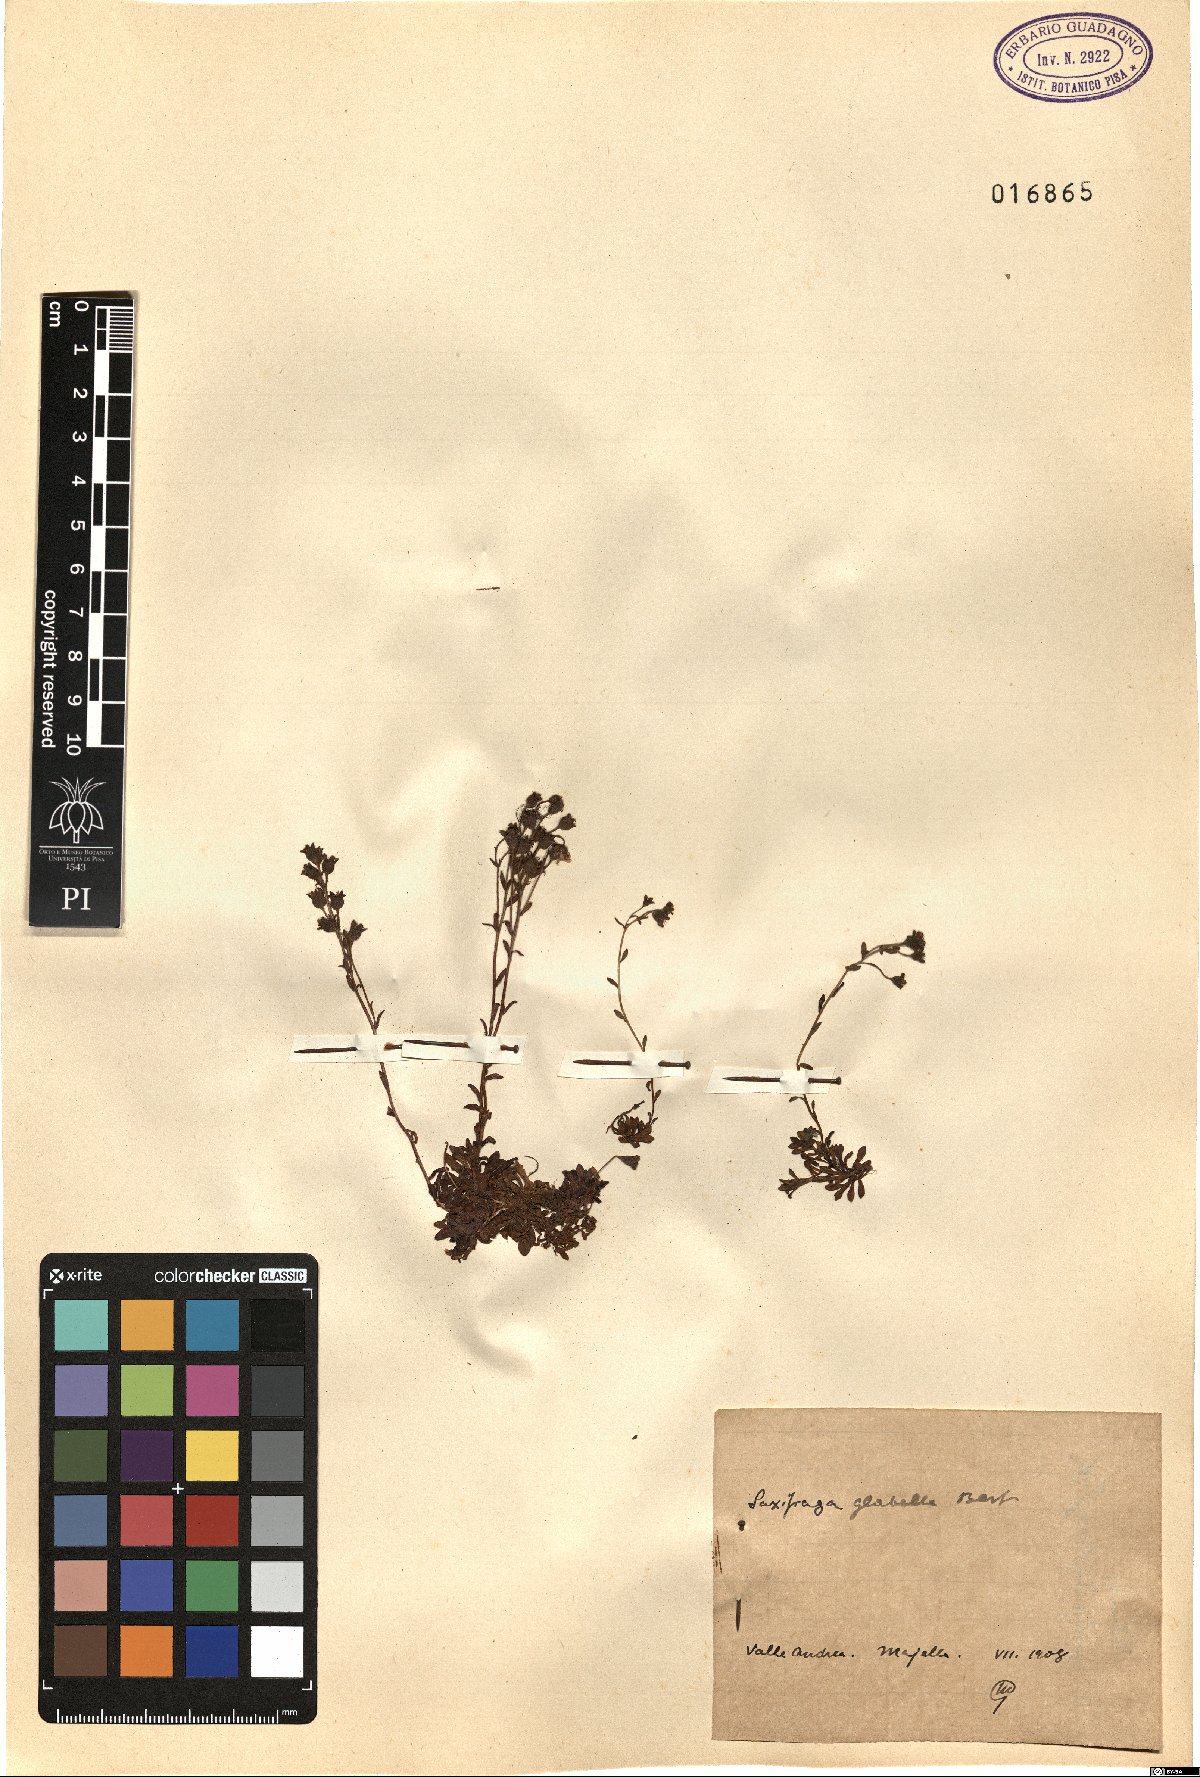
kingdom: Plantae
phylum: Tracheophyta
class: Magnoliopsida
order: Saxifragales
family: Saxifragaceae
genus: Saxifraga
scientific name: Saxifraga glabella
